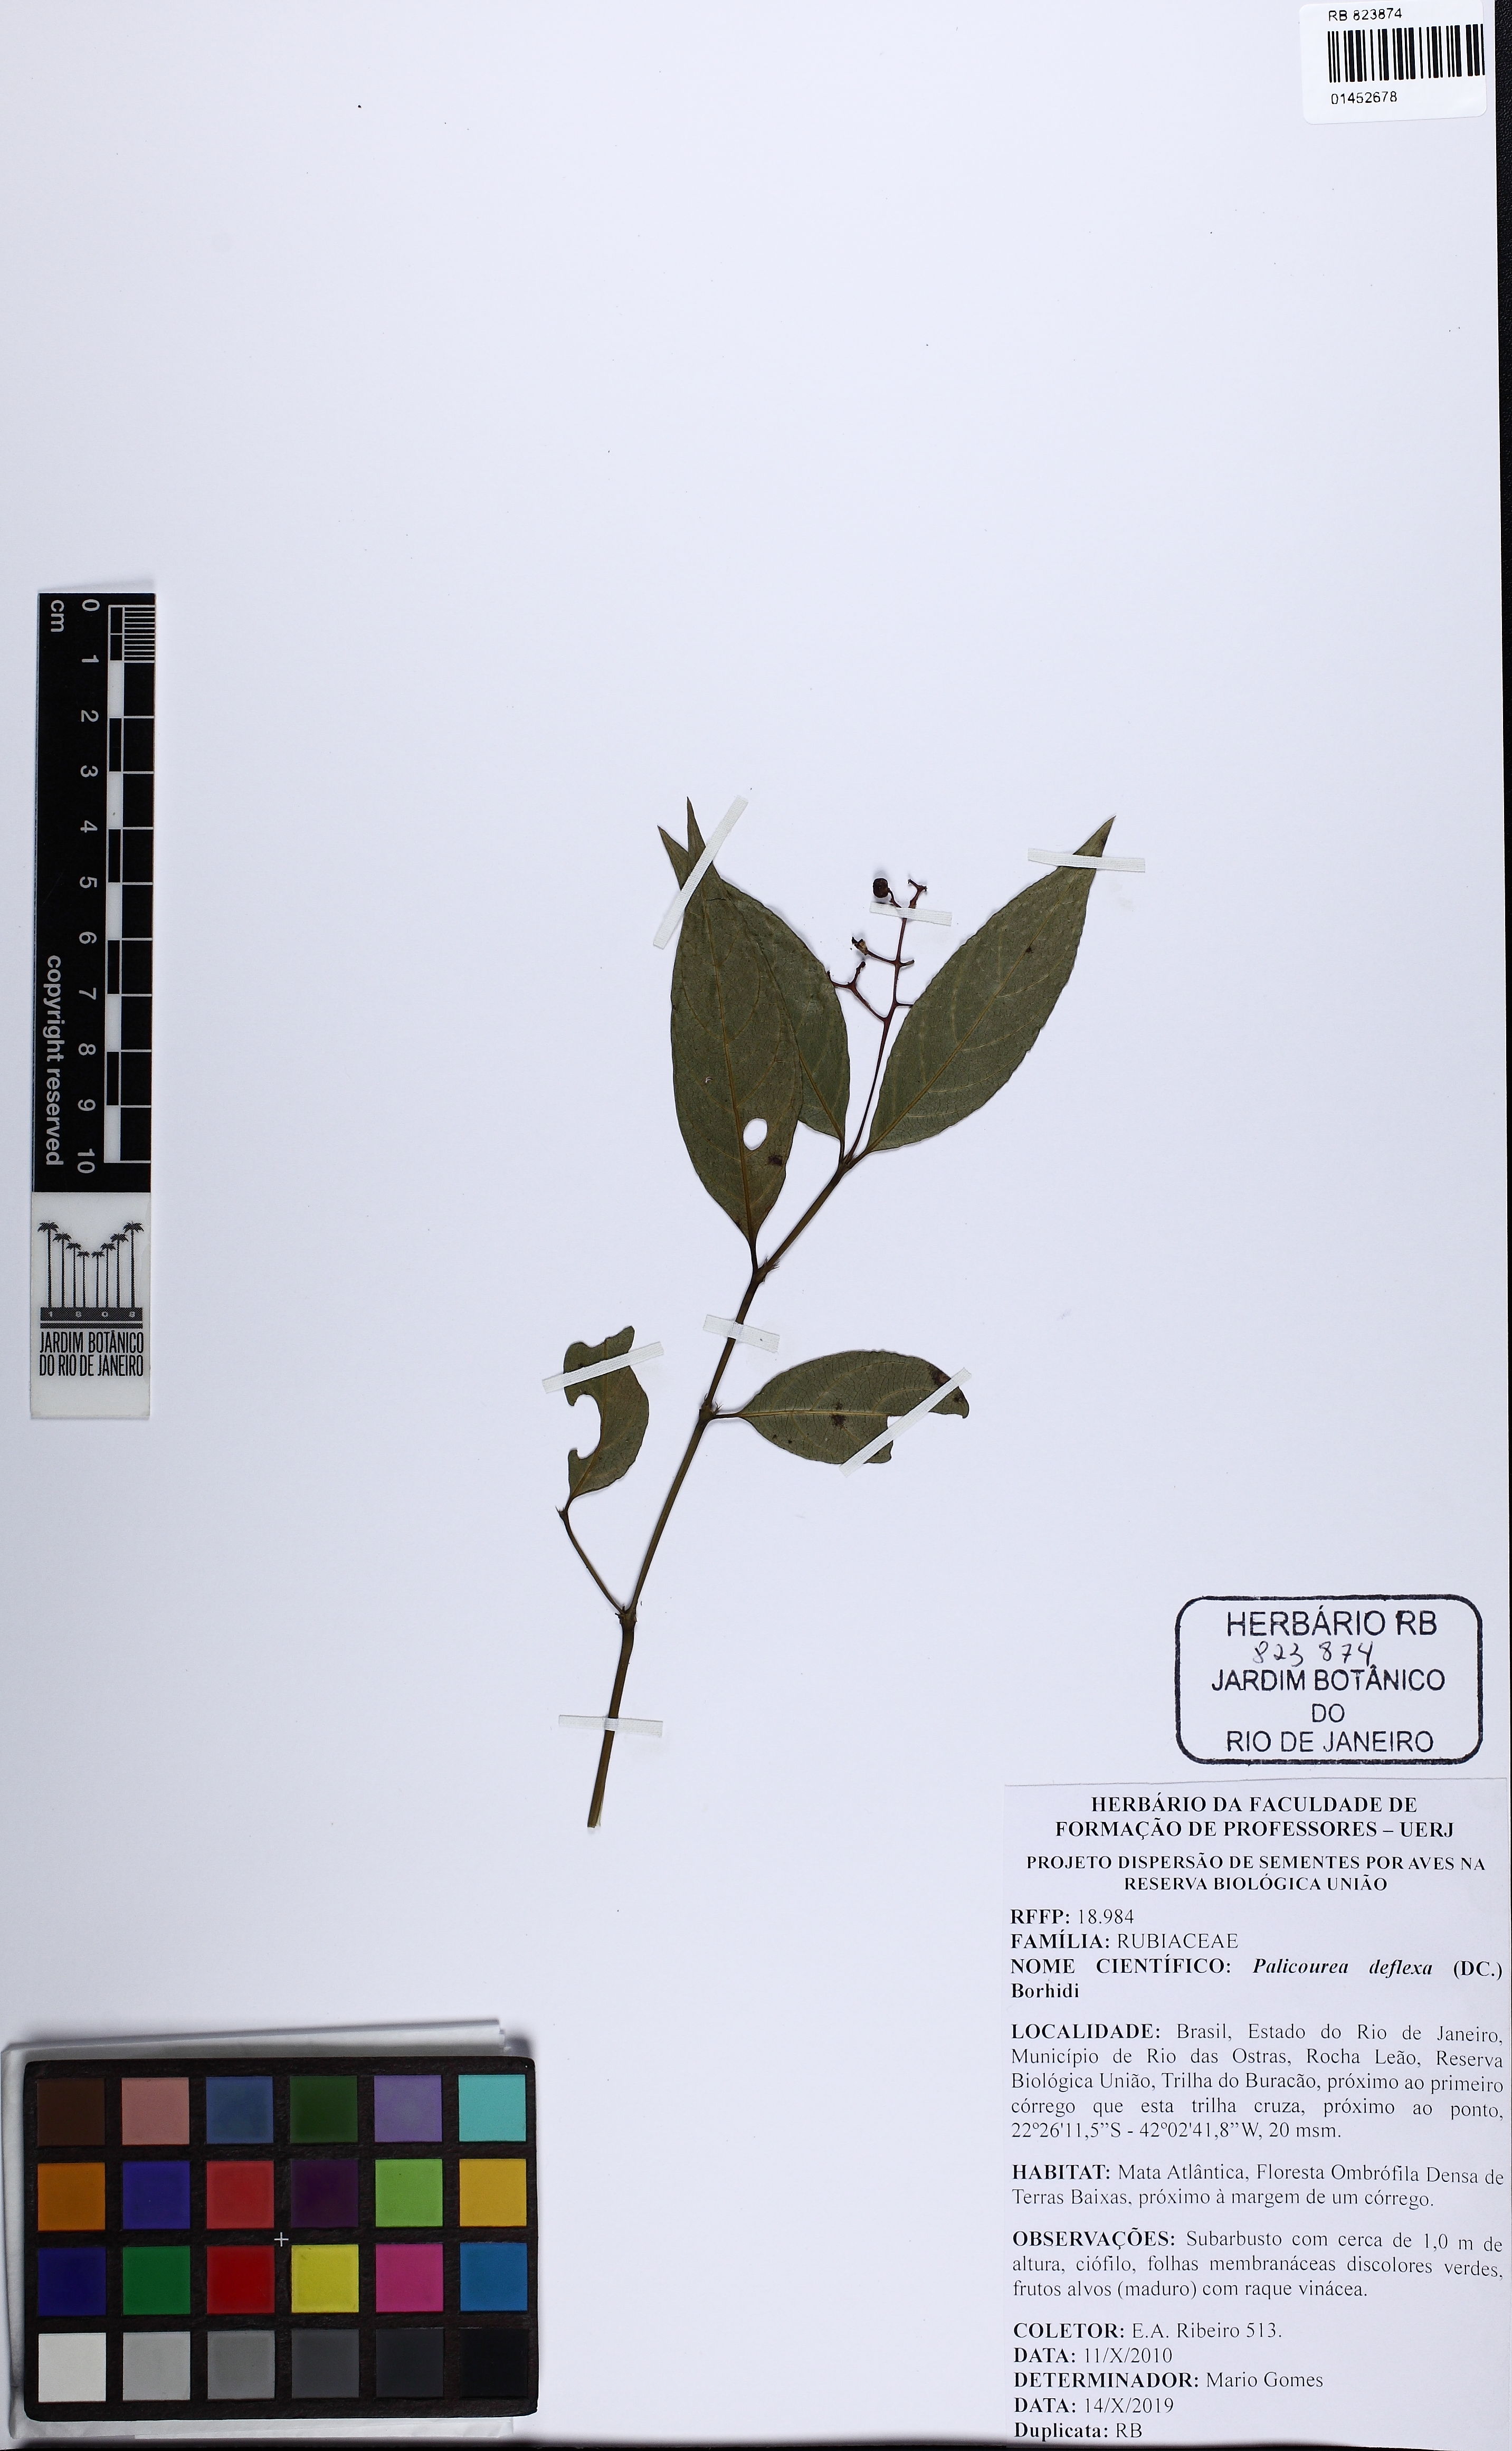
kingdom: Plantae
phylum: Tracheophyta
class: Magnoliopsida
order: Gentianales
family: Rubiaceae
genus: Palicourea
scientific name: Palicourea deflexa
